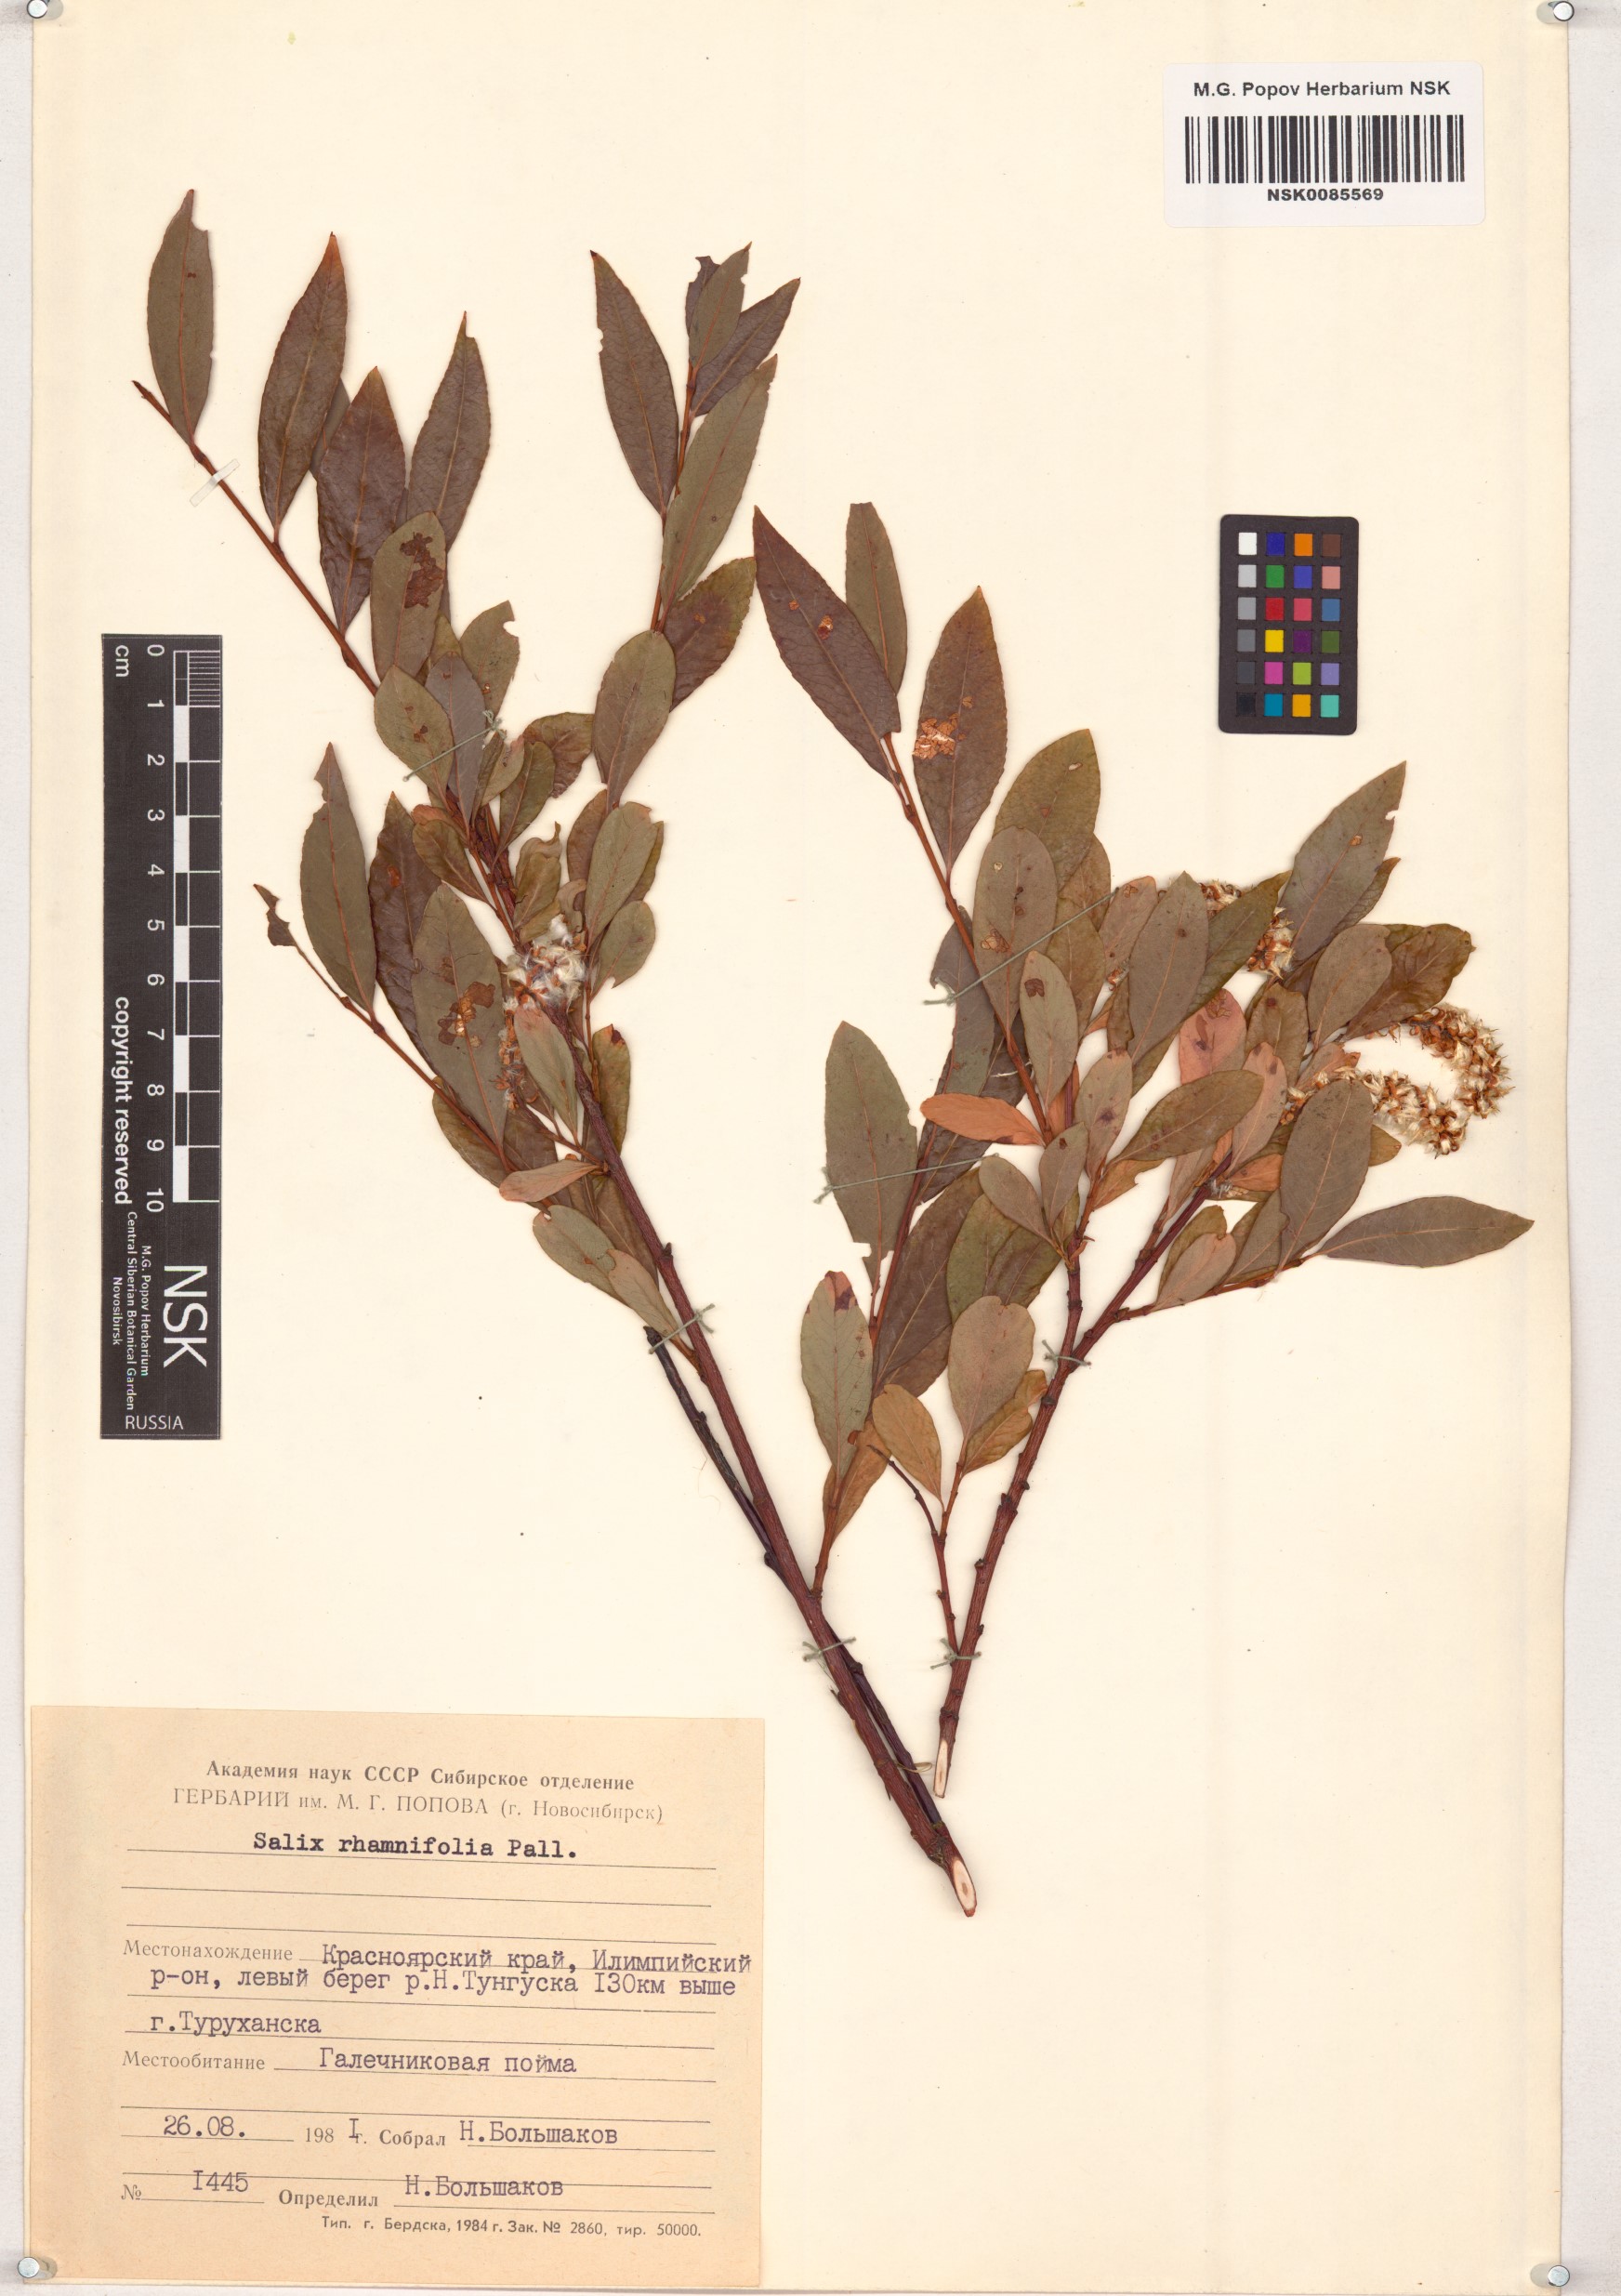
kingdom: Plantae
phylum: Tracheophyta
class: Magnoliopsida
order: Malpighiales
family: Salicaceae
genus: Salix
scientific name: Salix rhamnifolia
